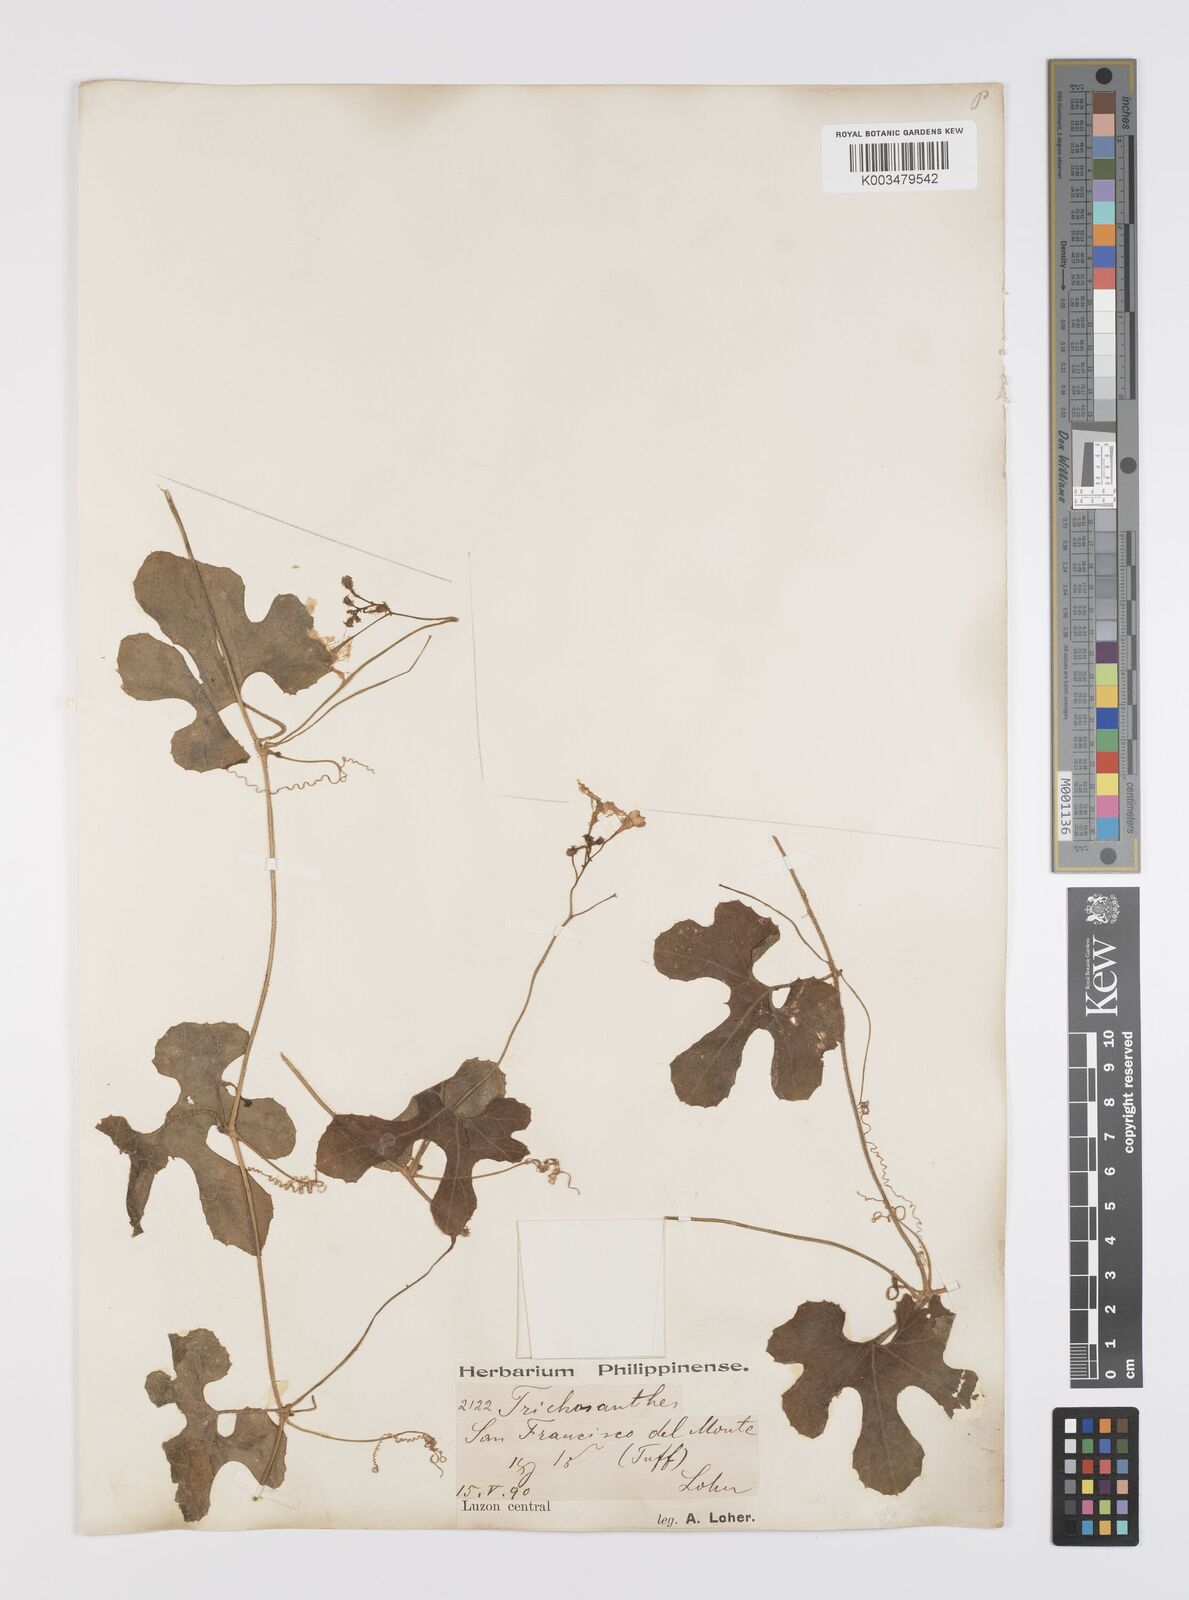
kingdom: Plantae
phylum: Tracheophyta
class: Magnoliopsida
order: Cucurbitales
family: Cucurbitaceae
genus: Trichosanthes
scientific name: Trichosanthes cucumerina
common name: Snakegourd
